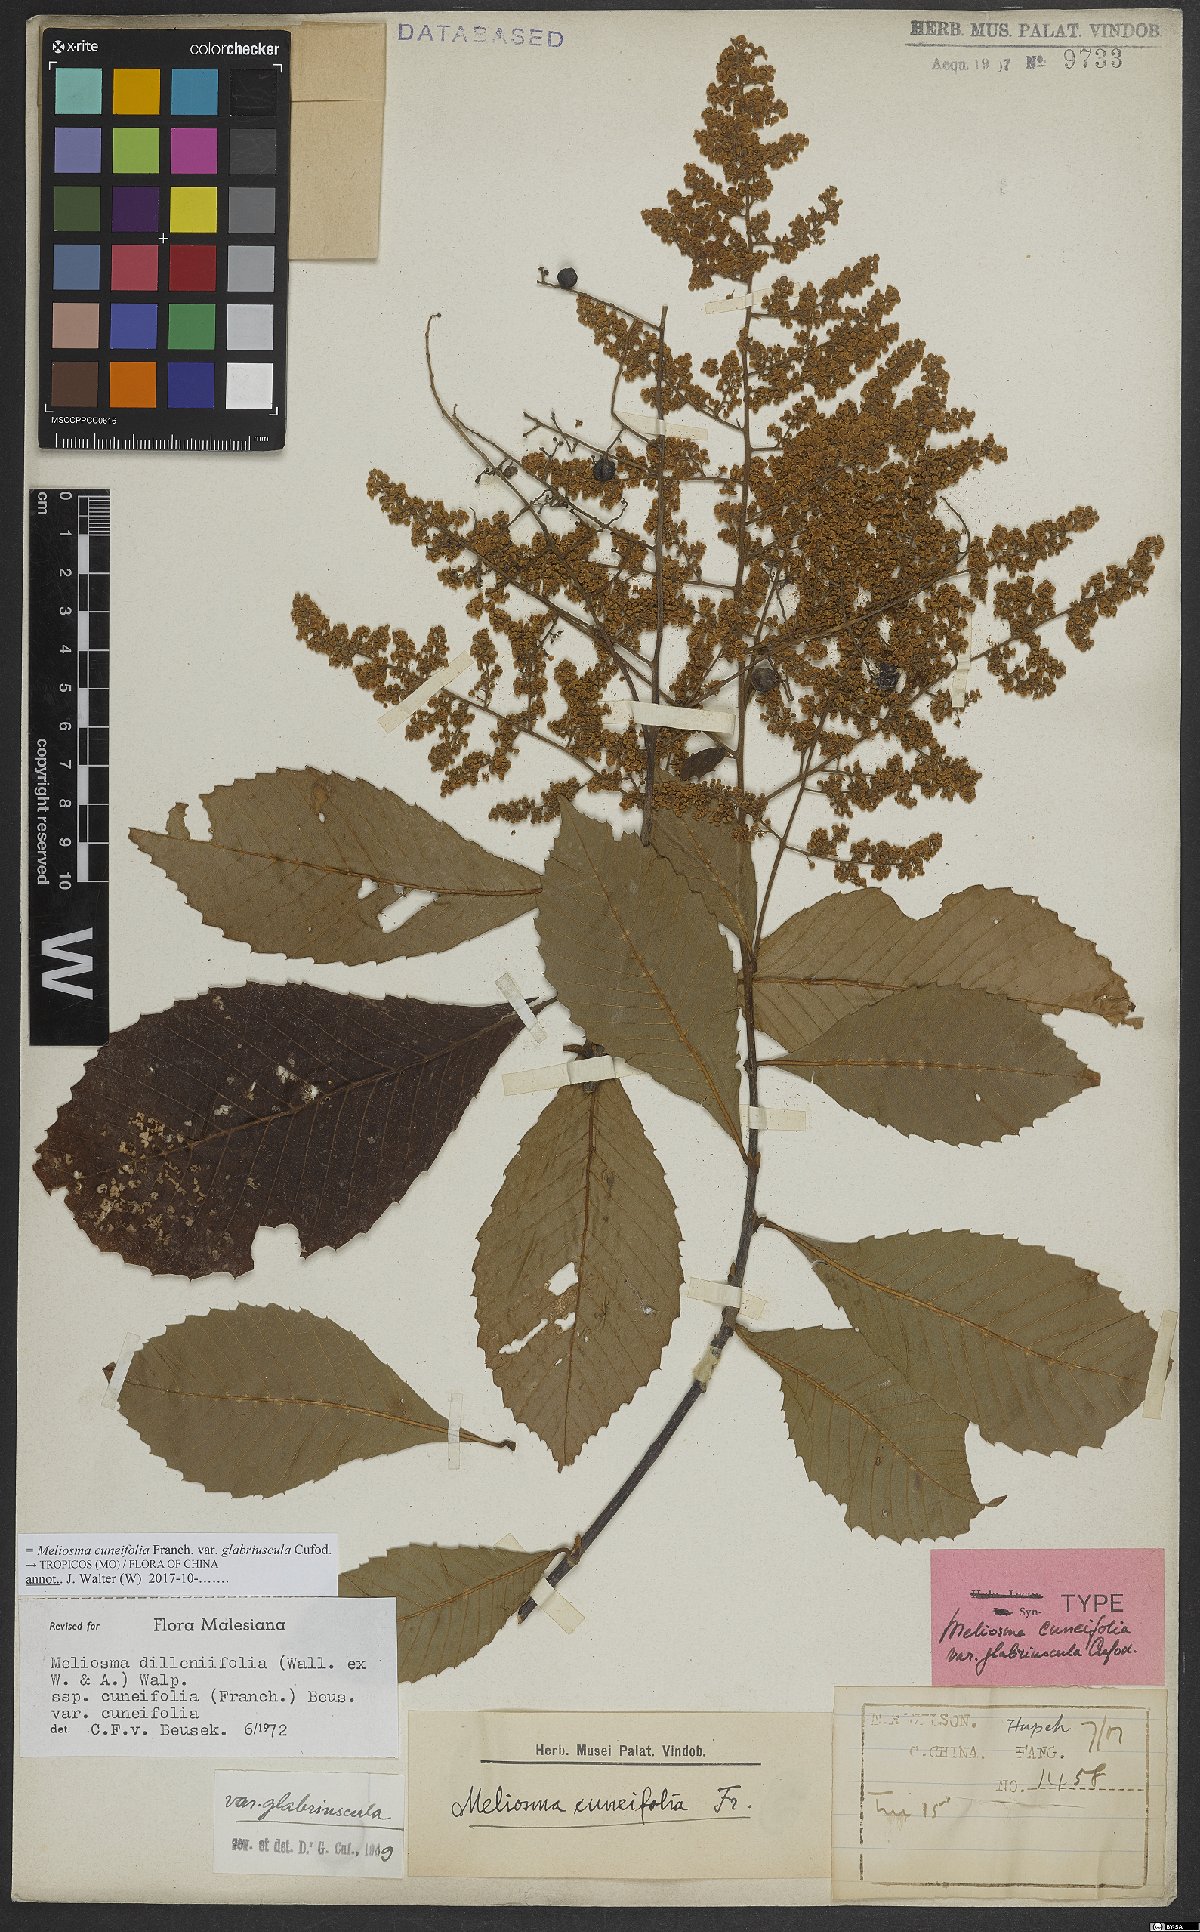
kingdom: Plantae
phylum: Tracheophyta
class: Magnoliopsida
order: Proteales
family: Sabiaceae
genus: Meliosma
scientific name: Meliosma cuneifolia
